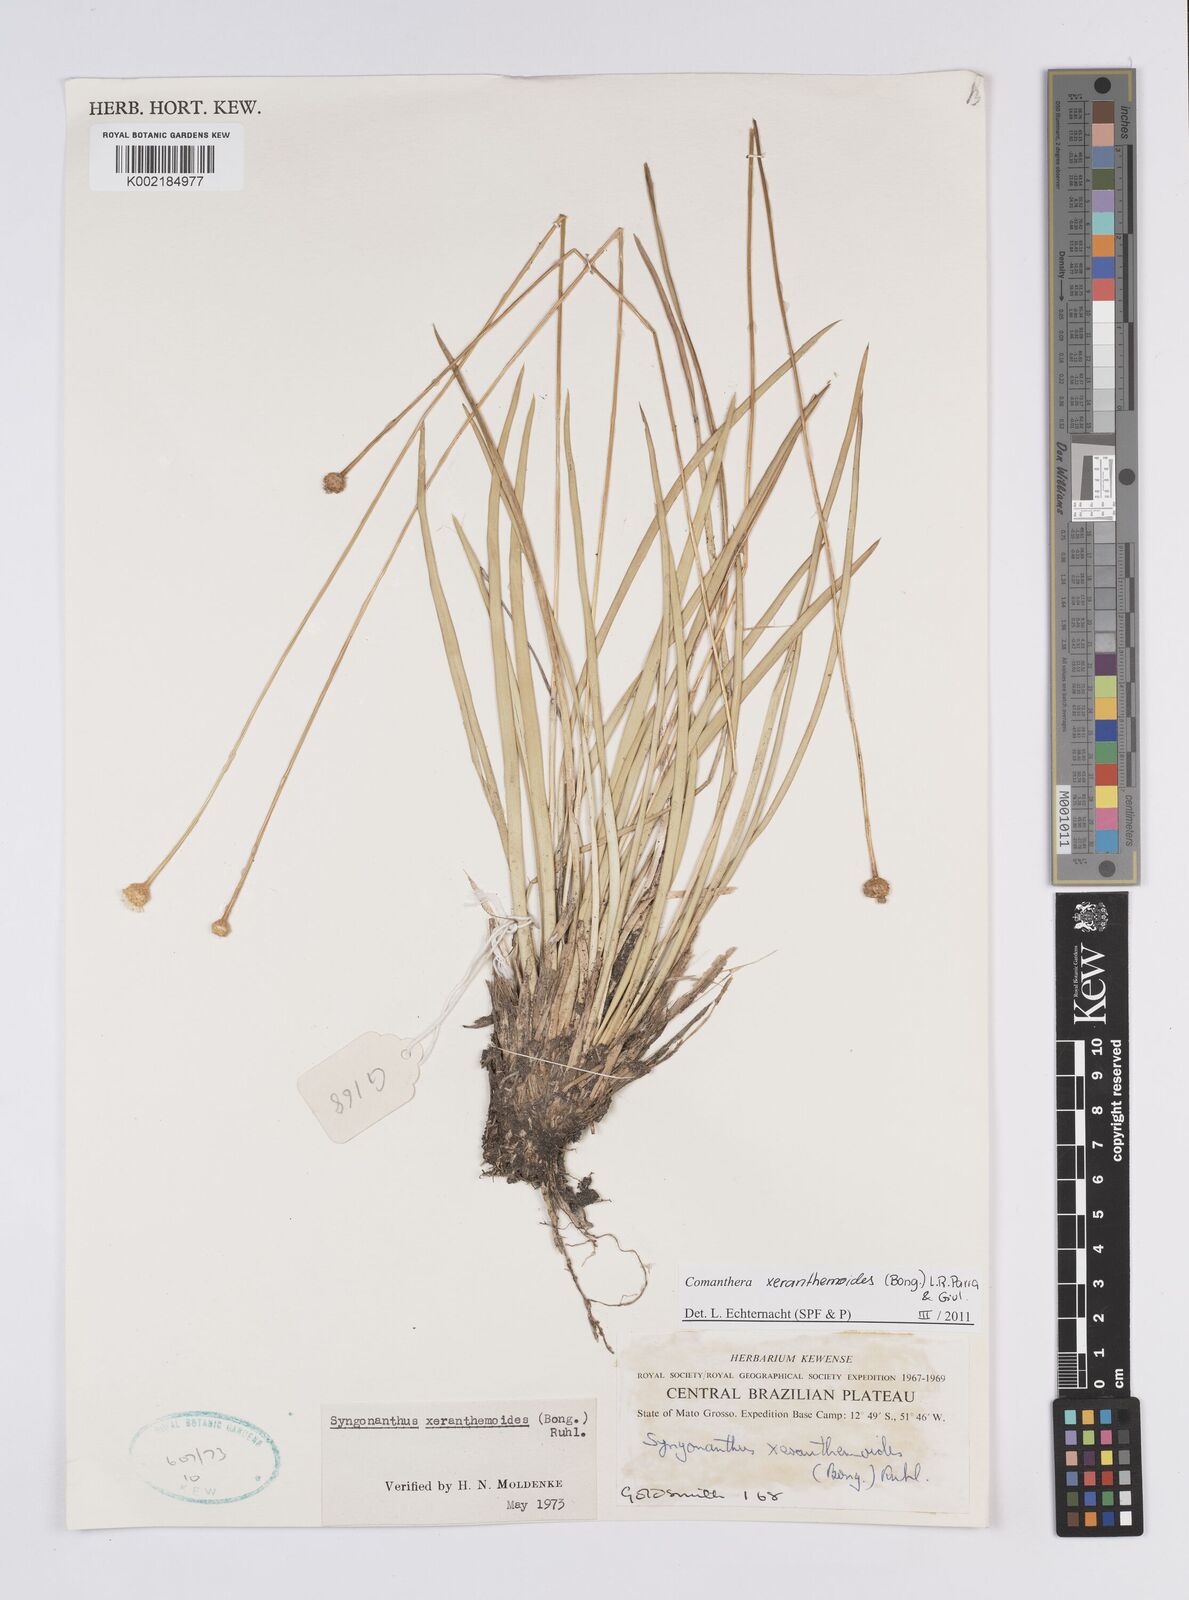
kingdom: Plantae
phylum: Tracheophyta
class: Liliopsida
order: Poales
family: Eriocaulaceae
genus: Comanthera
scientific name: Comanthera xeranthemoides
